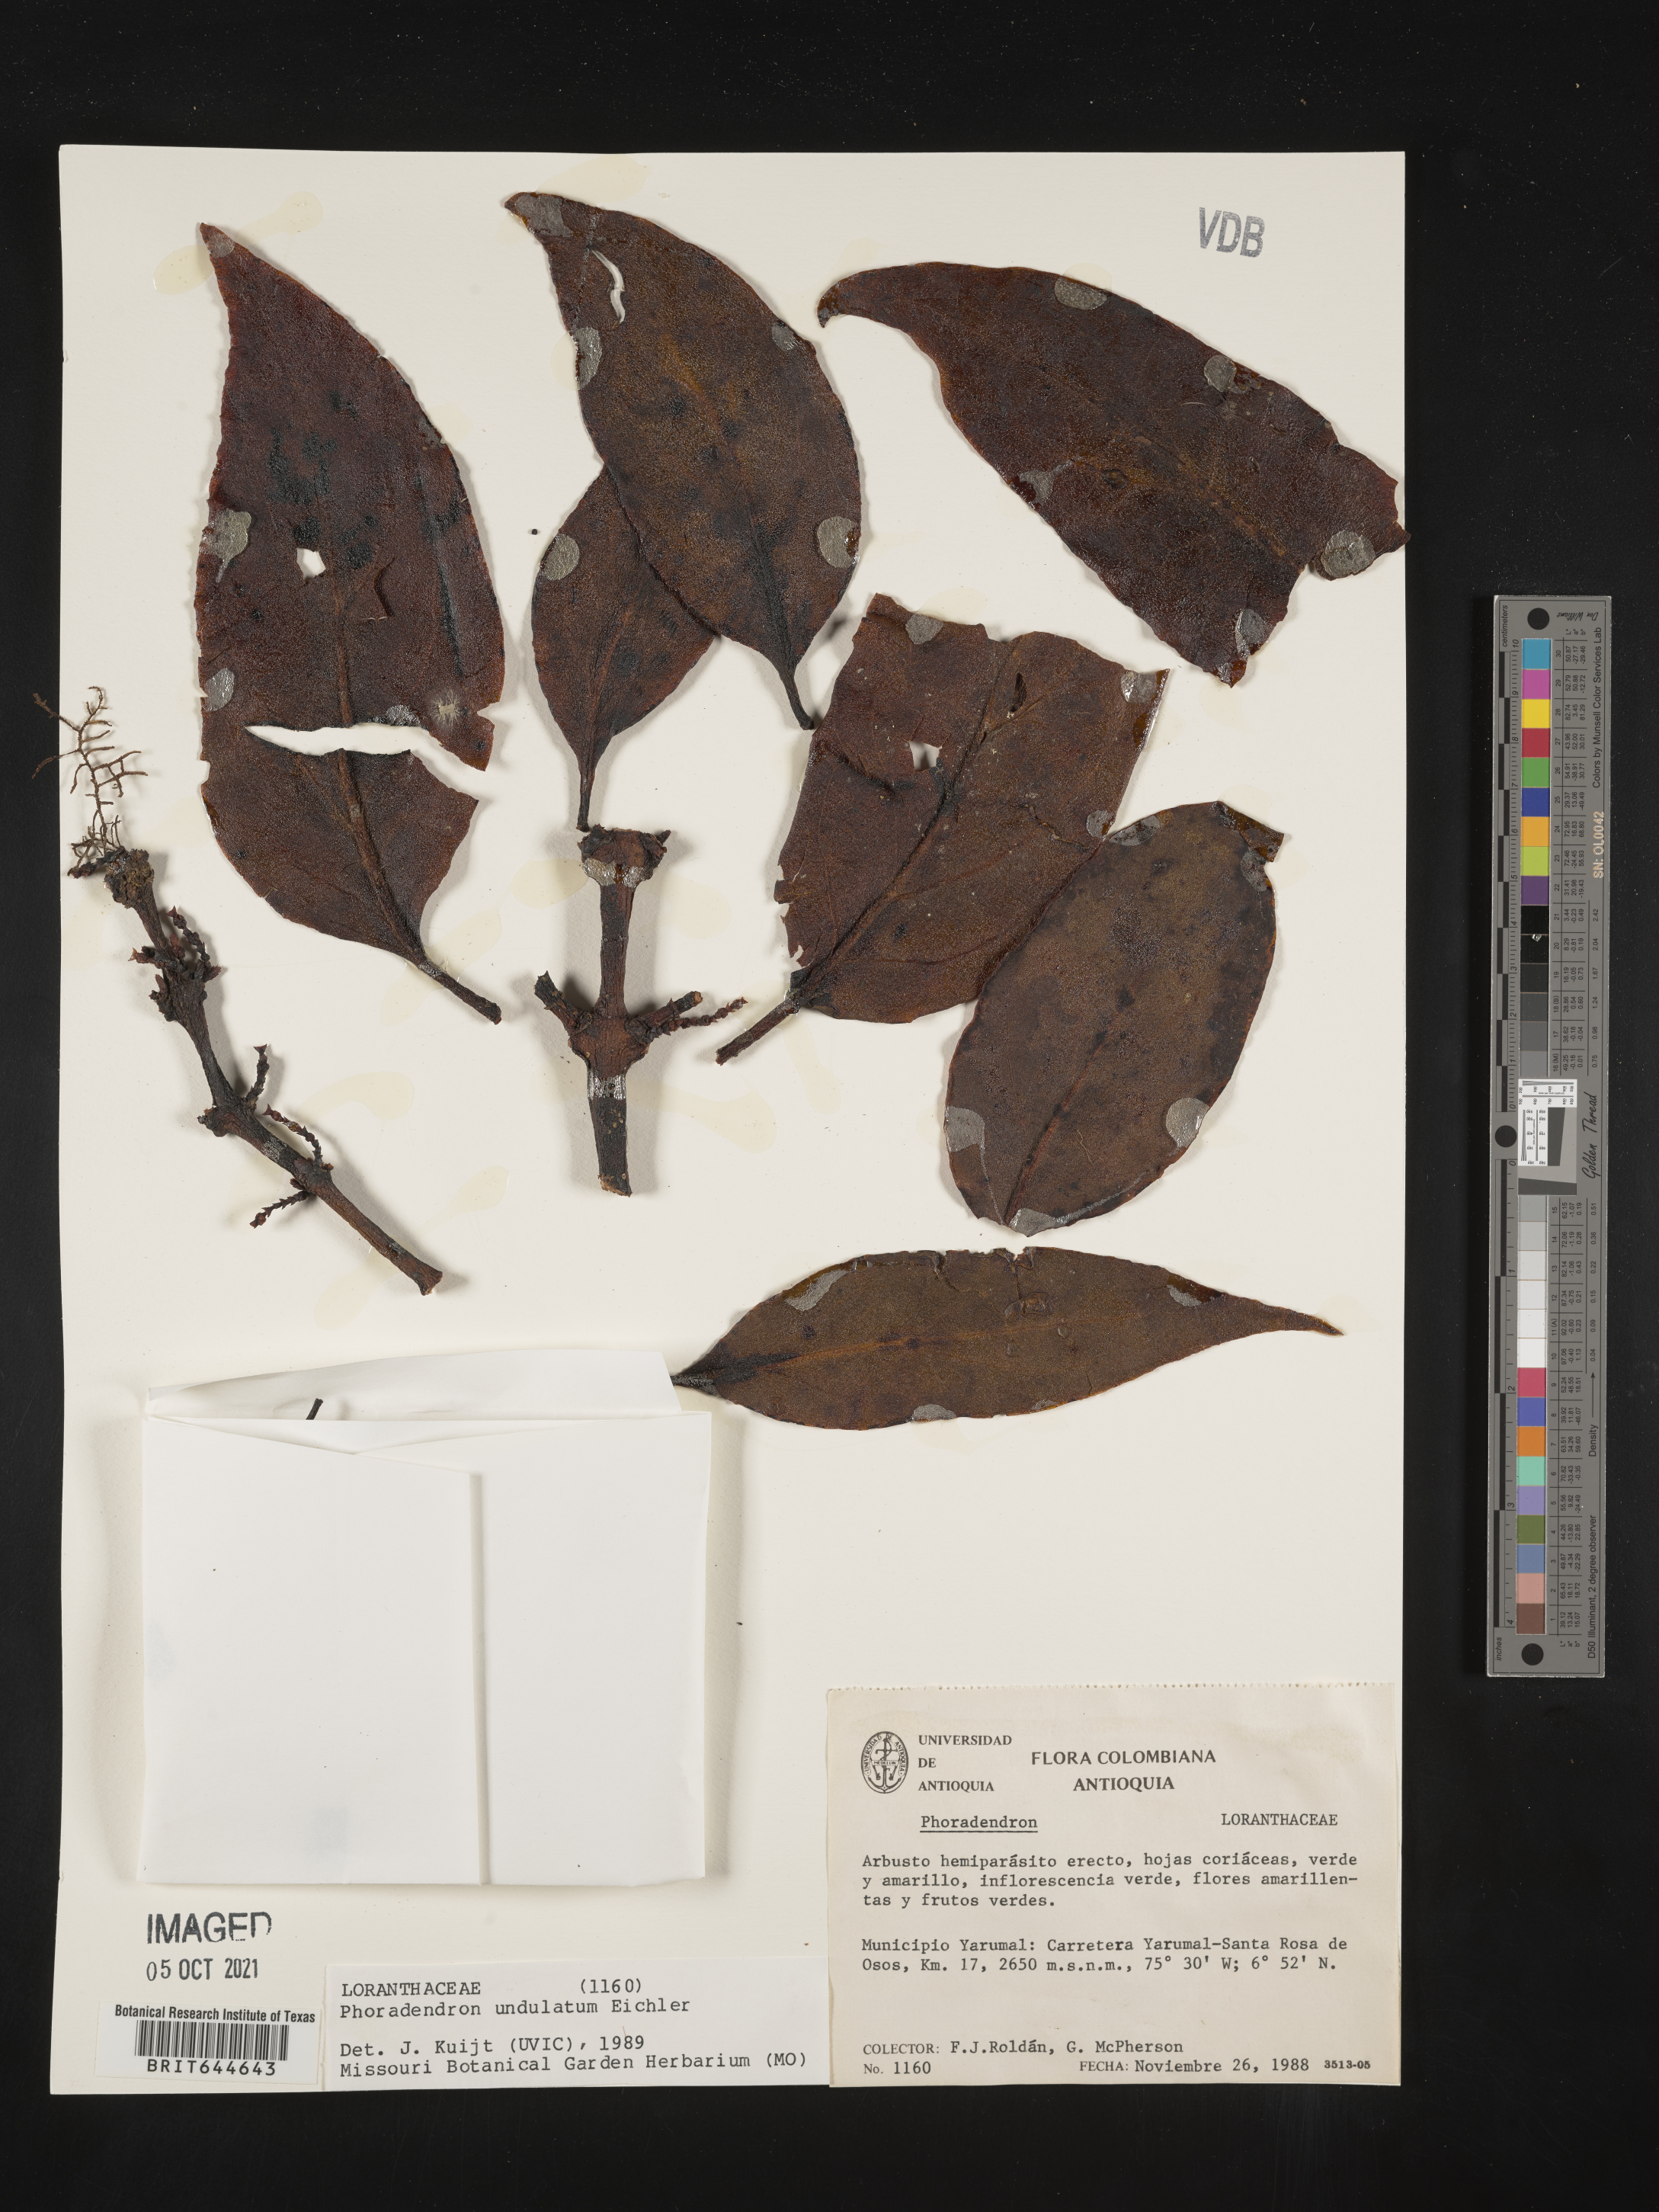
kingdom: Plantae
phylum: Tracheophyta
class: Magnoliopsida
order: Santalales
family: Viscaceae
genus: Phoradendron
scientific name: Phoradendron
